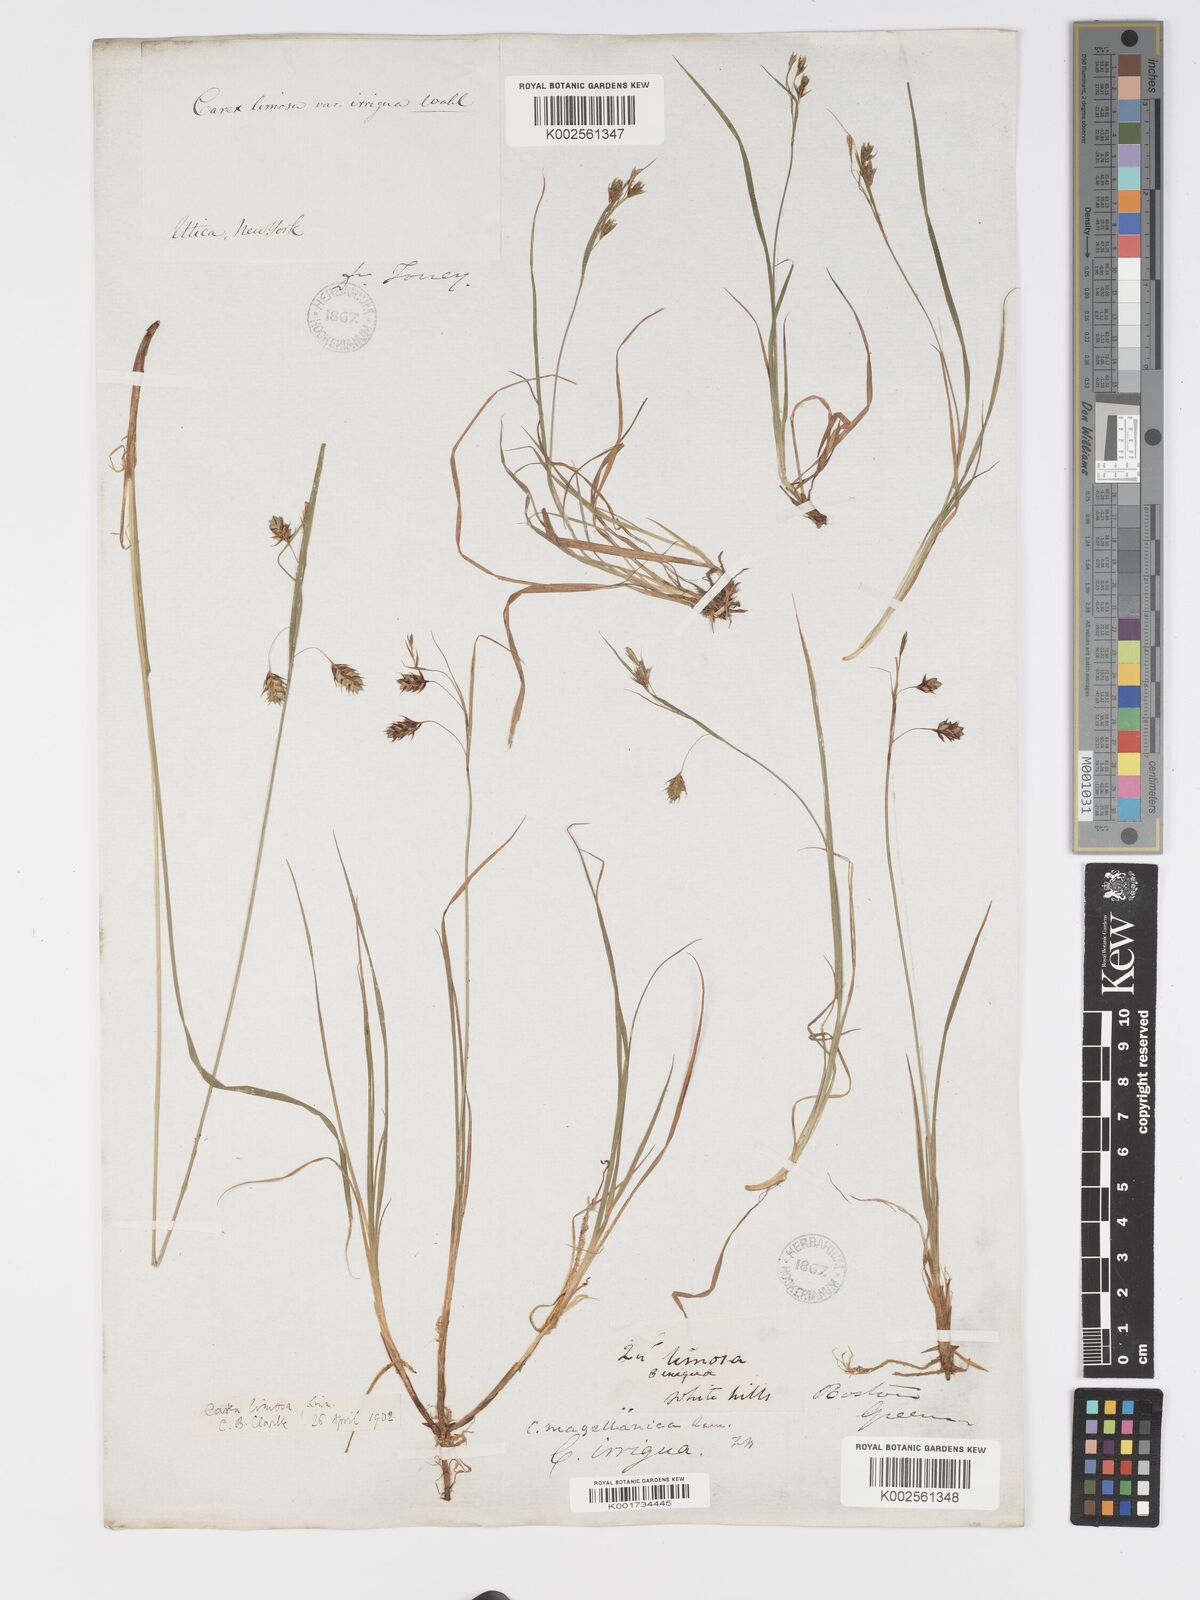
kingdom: Plantae
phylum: Tracheophyta
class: Liliopsida
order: Poales
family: Cyperaceae
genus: Carex
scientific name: Carex magellanica
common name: Bog sedge
